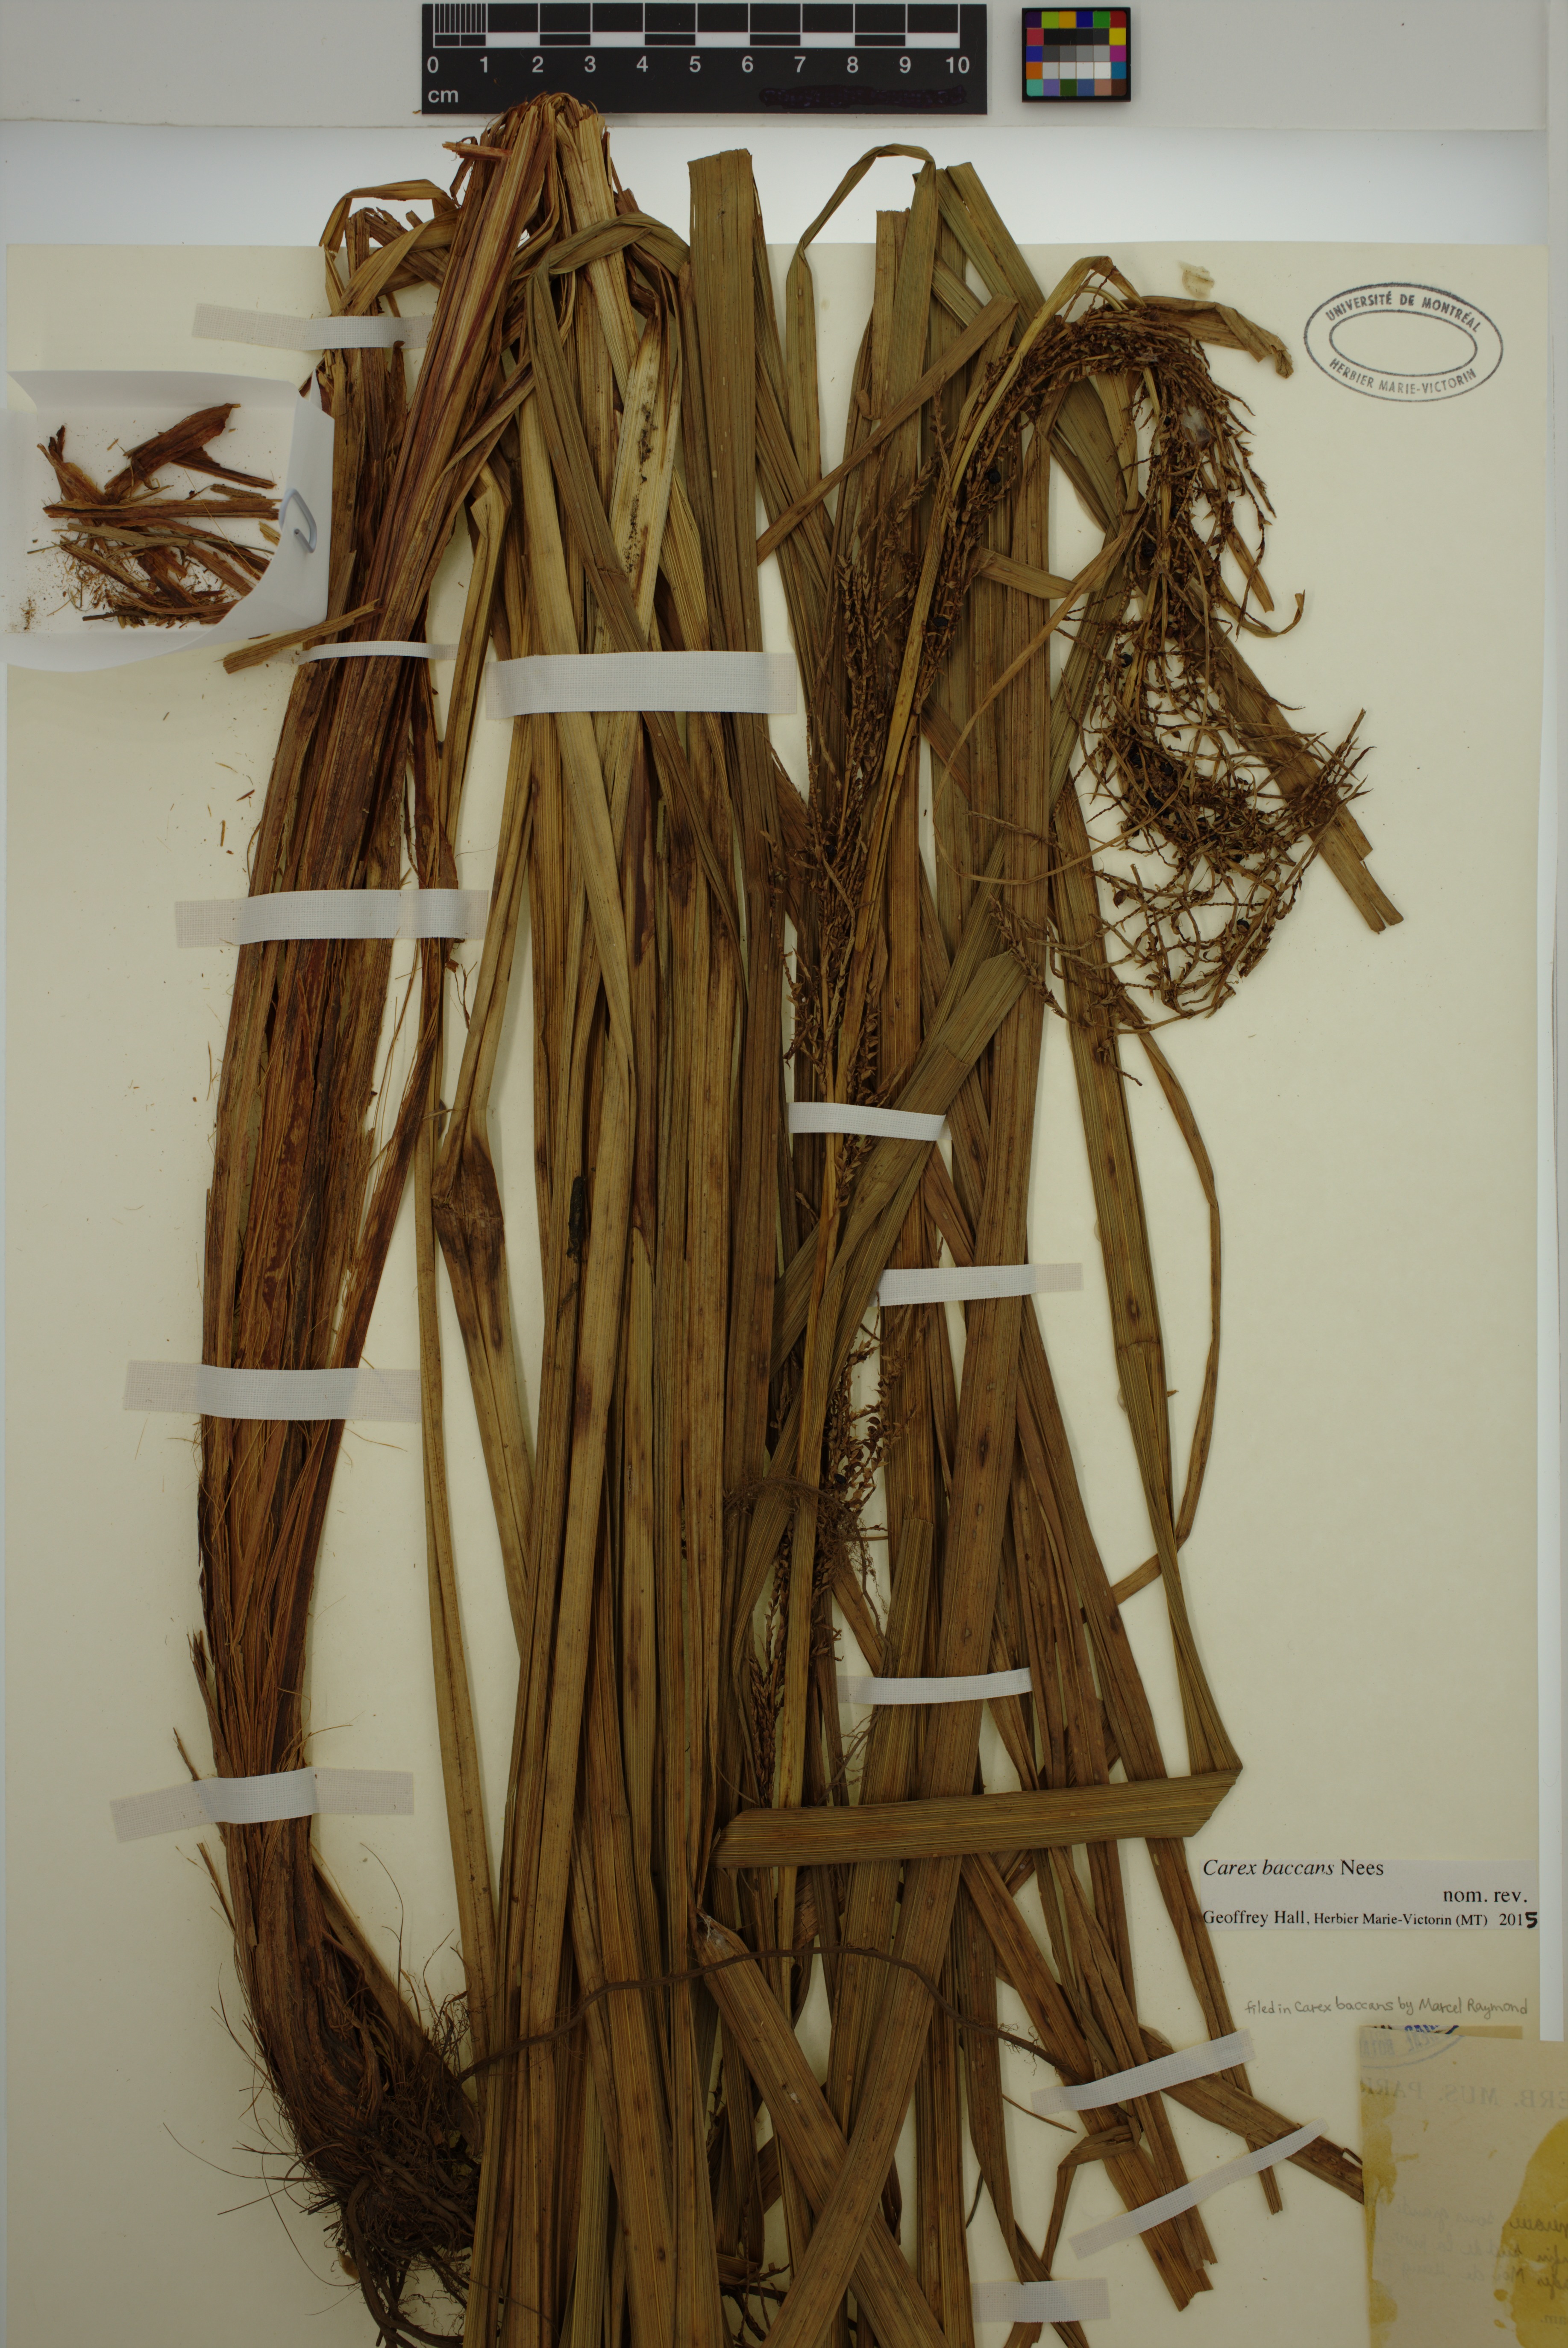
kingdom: Plantae
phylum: Tracheophyta
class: Liliopsida
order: Poales
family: Cyperaceae
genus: Carex
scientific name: Carex baccans
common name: Crimson seeded sedge
